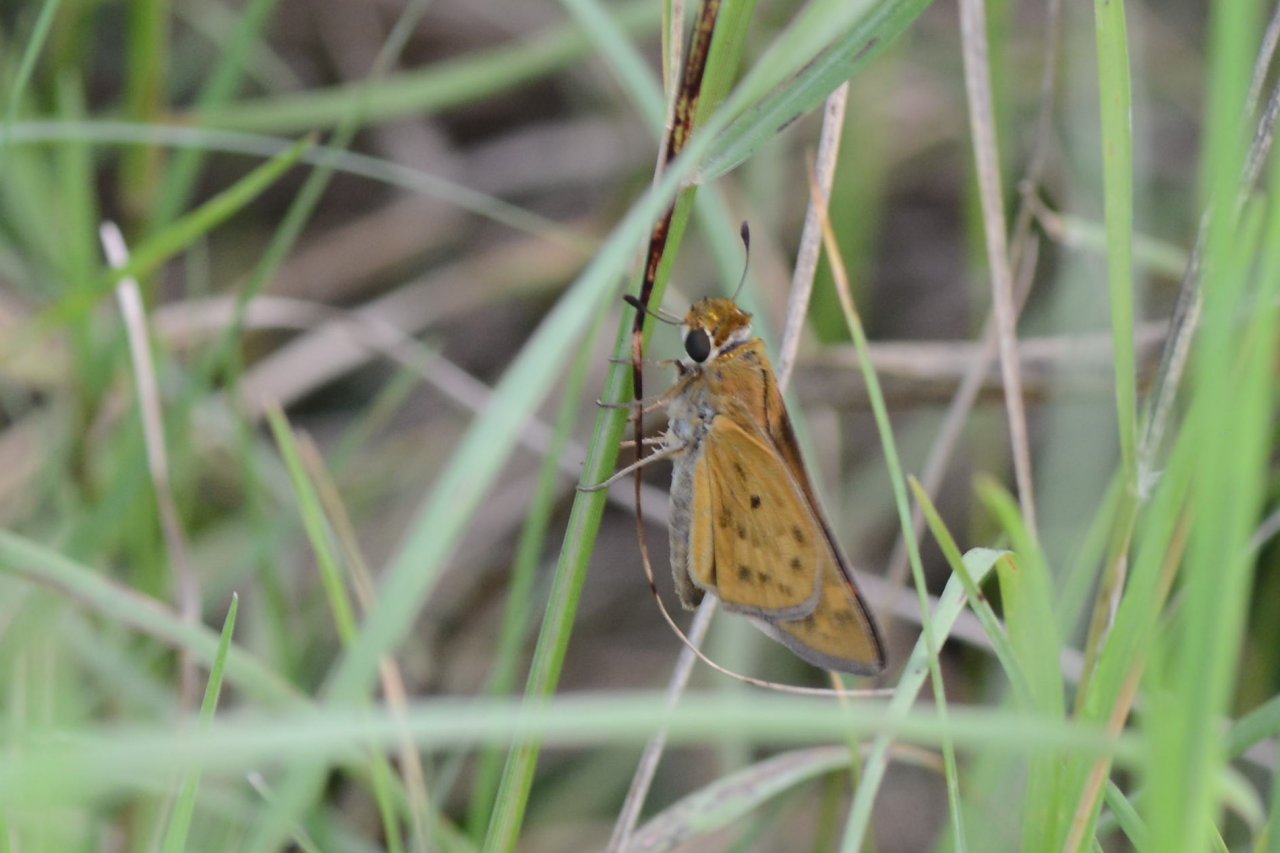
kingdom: Animalia
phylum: Arthropoda
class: Insecta
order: Lepidoptera
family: Hesperiidae
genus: Hylephila
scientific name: Hylephila phyleus
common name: Fiery Skipper
